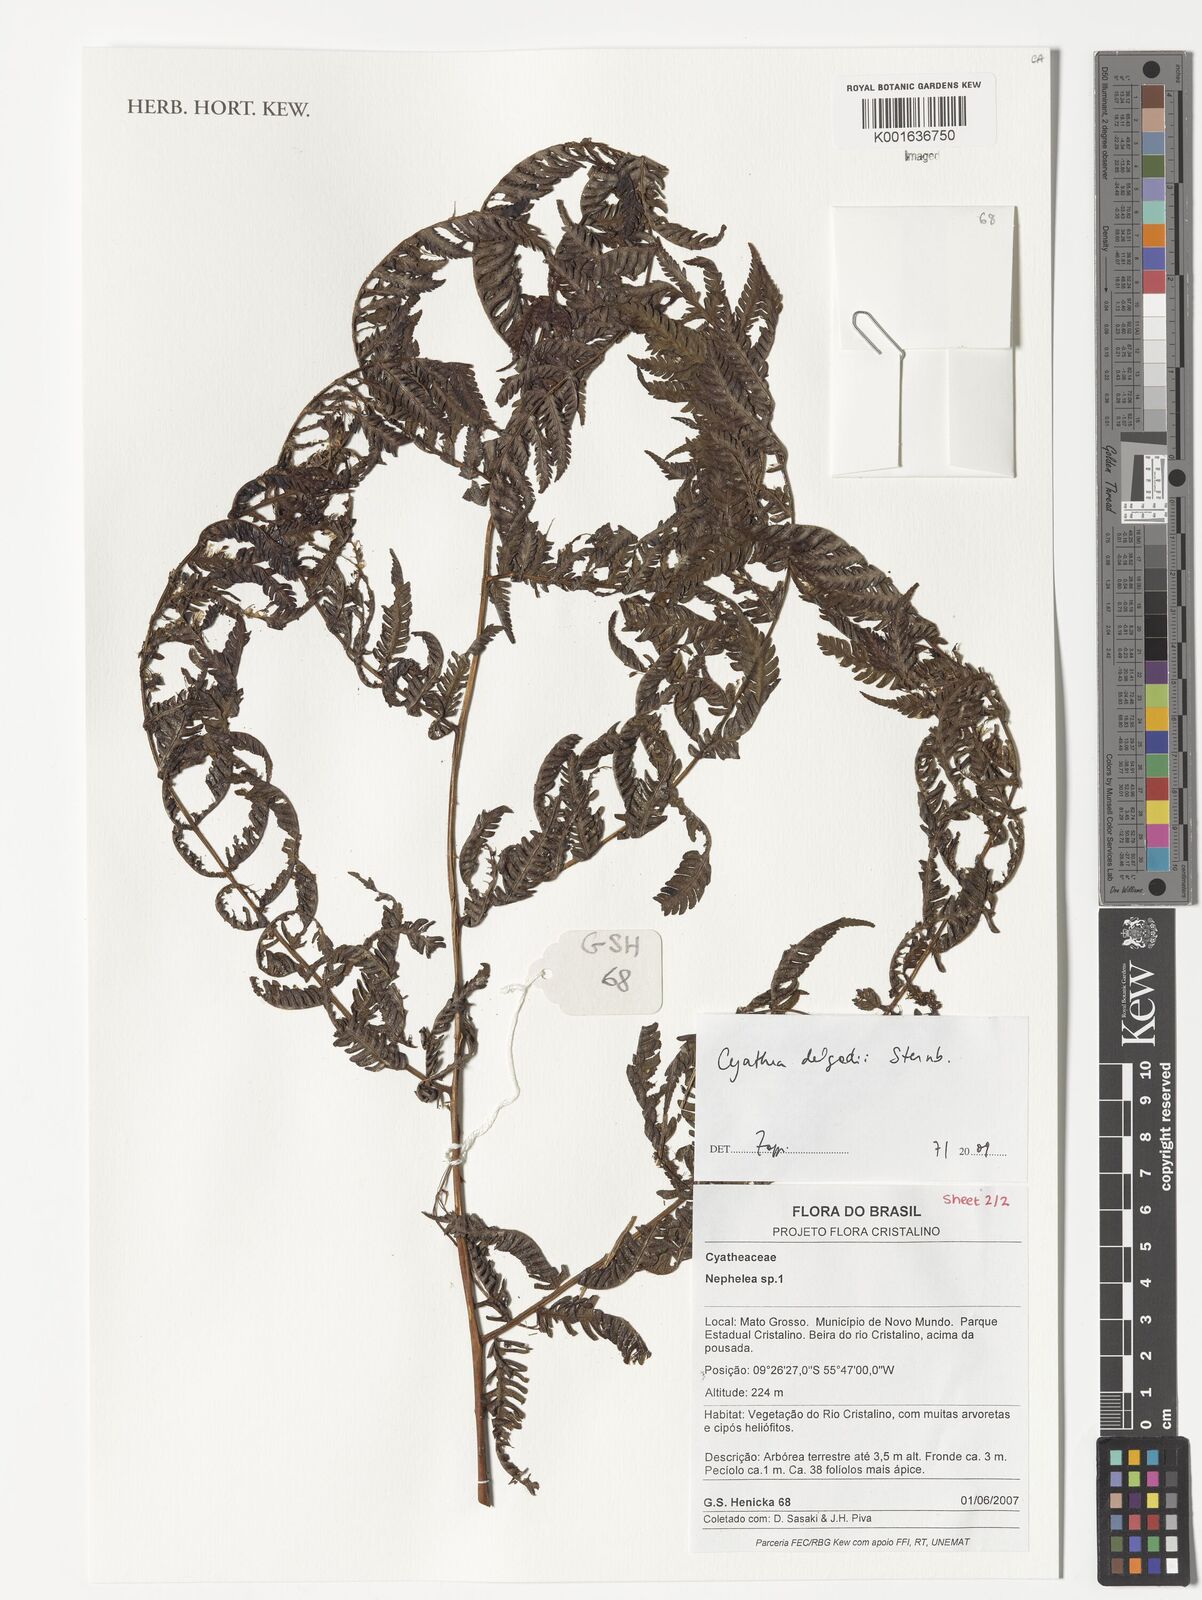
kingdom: Plantae
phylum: Tracheophyta
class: Polypodiopsida
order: Cyatheales
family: Cyatheaceae
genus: Cyathea
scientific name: Cyathea delgadii
